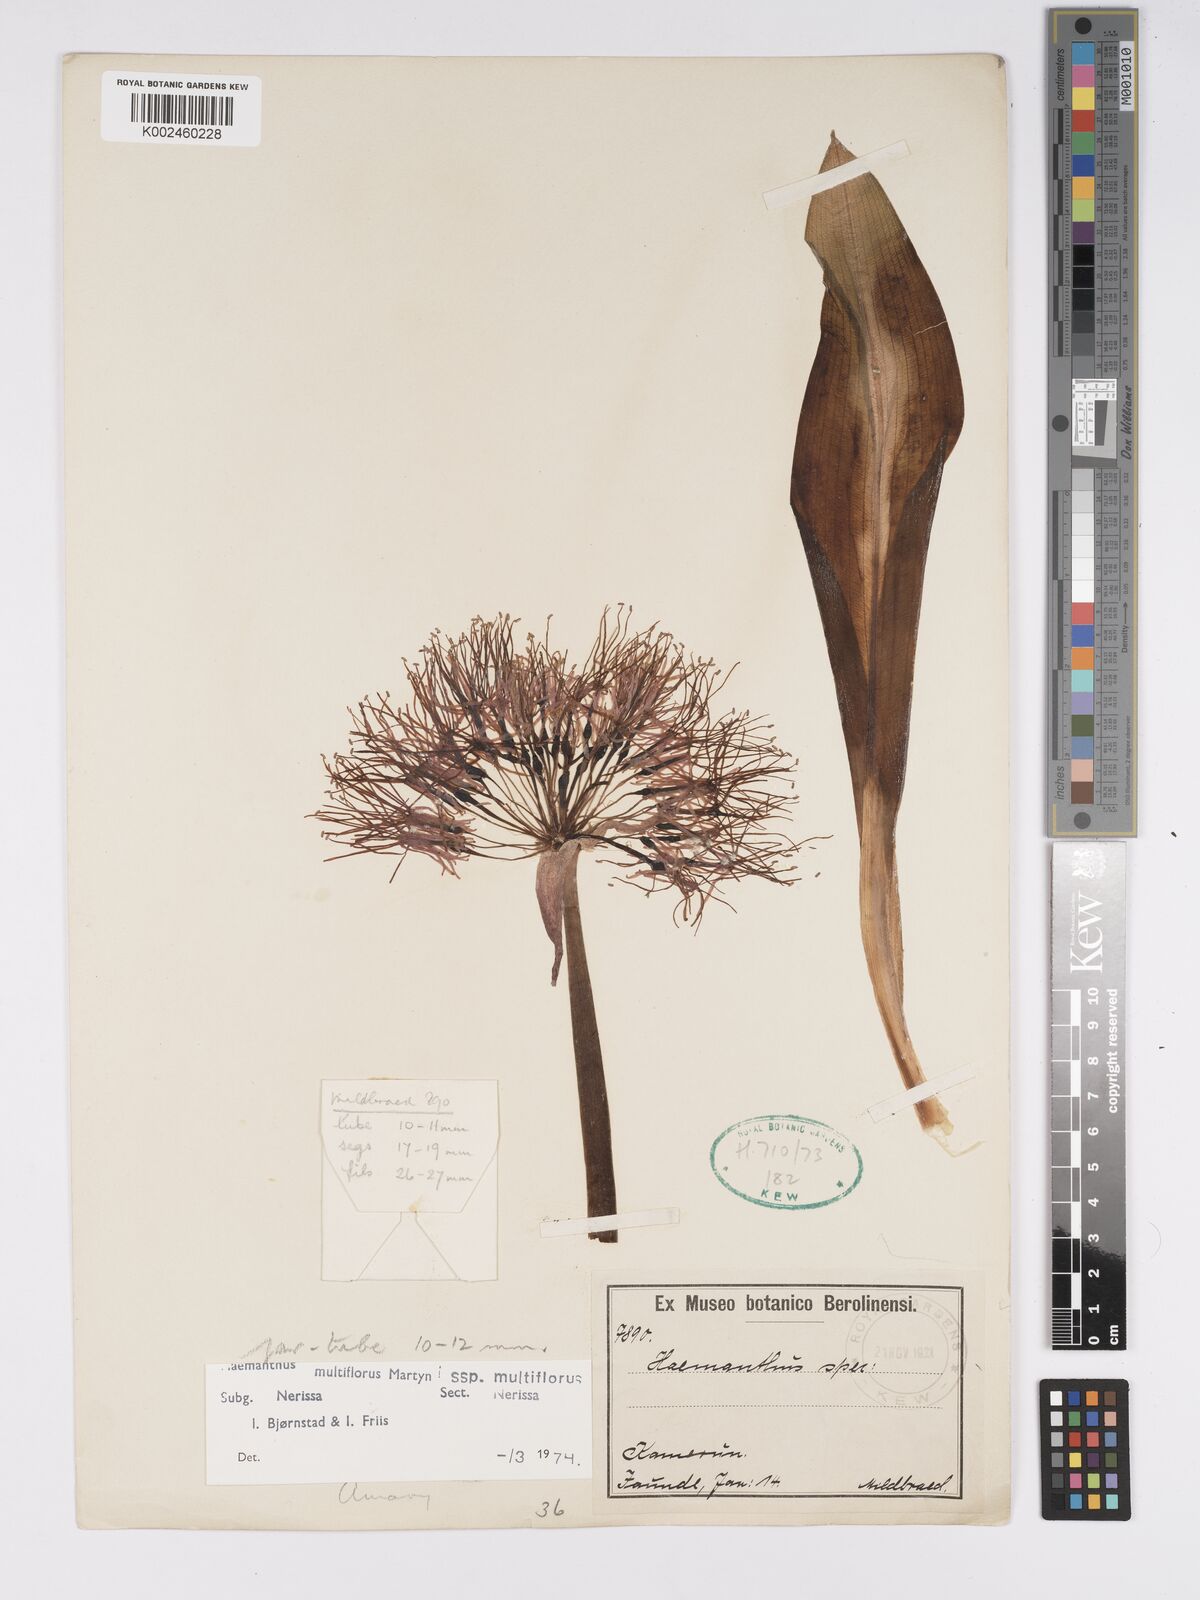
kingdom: Plantae
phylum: Tracheophyta
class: Liliopsida
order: Asparagales
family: Amaryllidaceae
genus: Scadoxus
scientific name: Scadoxus multiflorus
